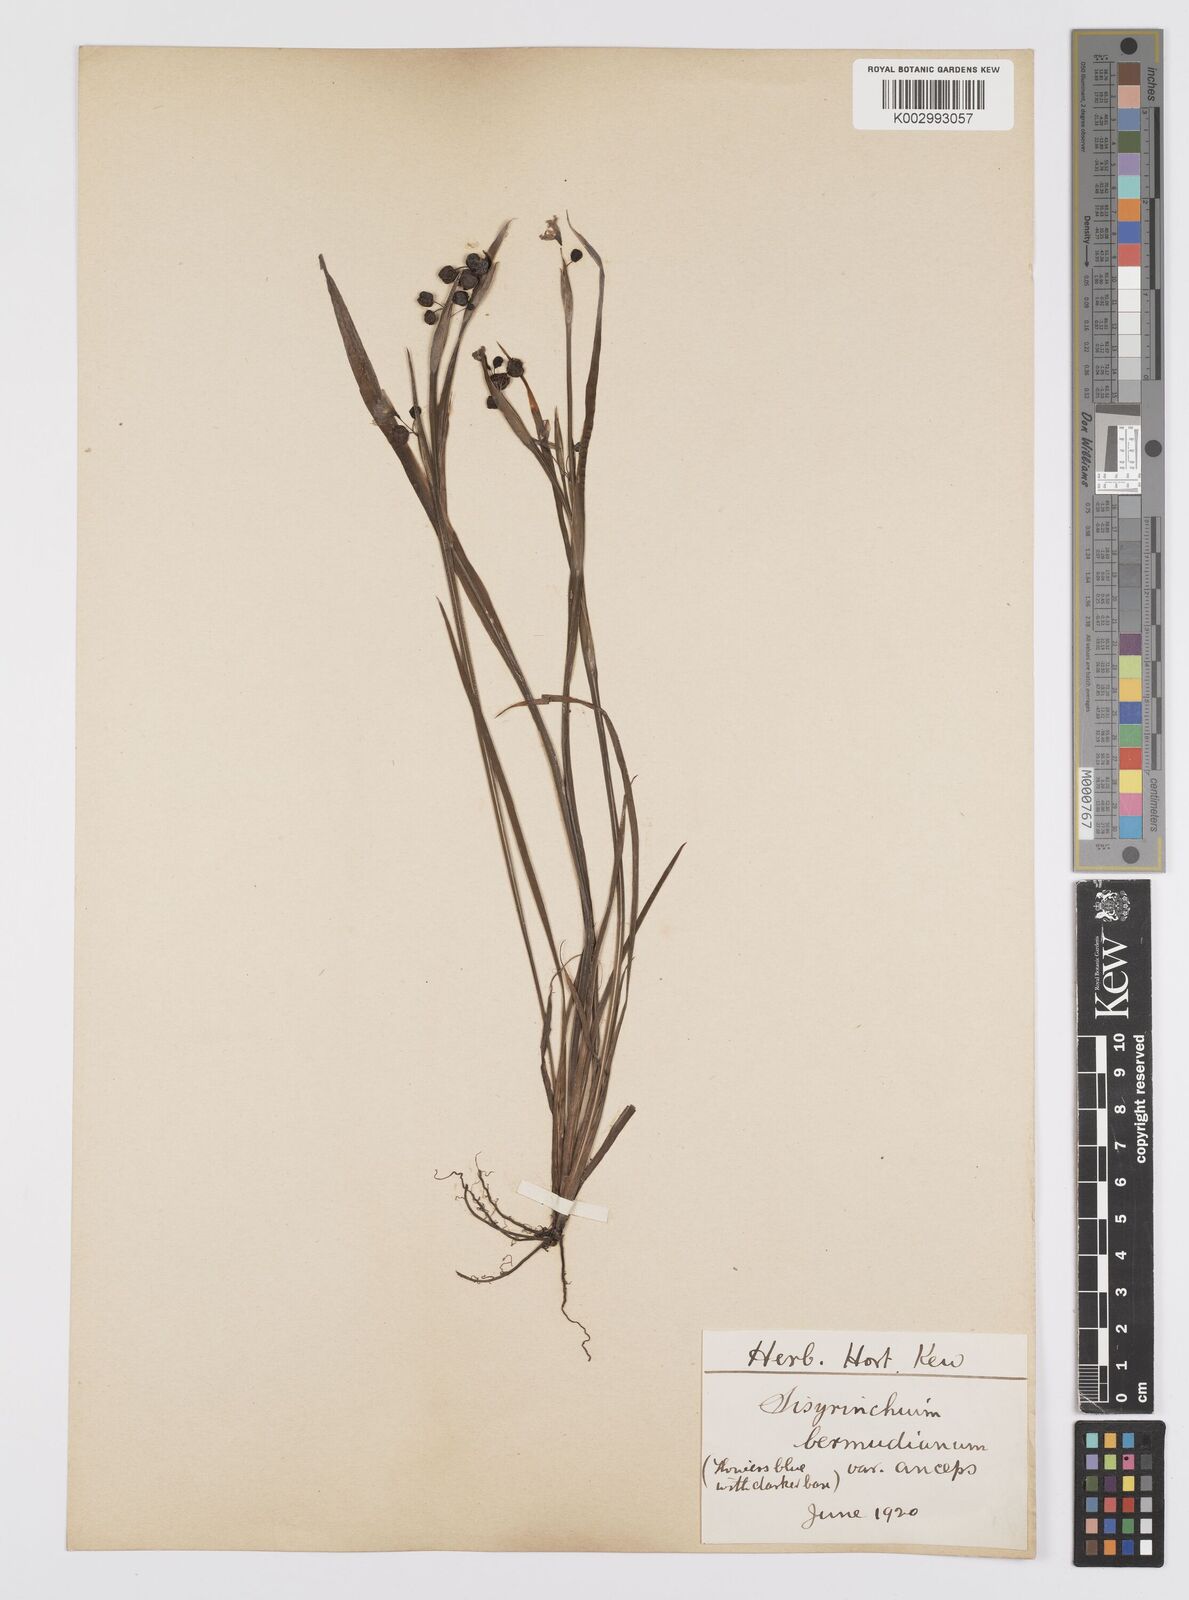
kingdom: Plantae
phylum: Tracheophyta
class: Liliopsida
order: Asparagales
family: Iridaceae
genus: Sisyrinchium
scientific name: Sisyrinchium
